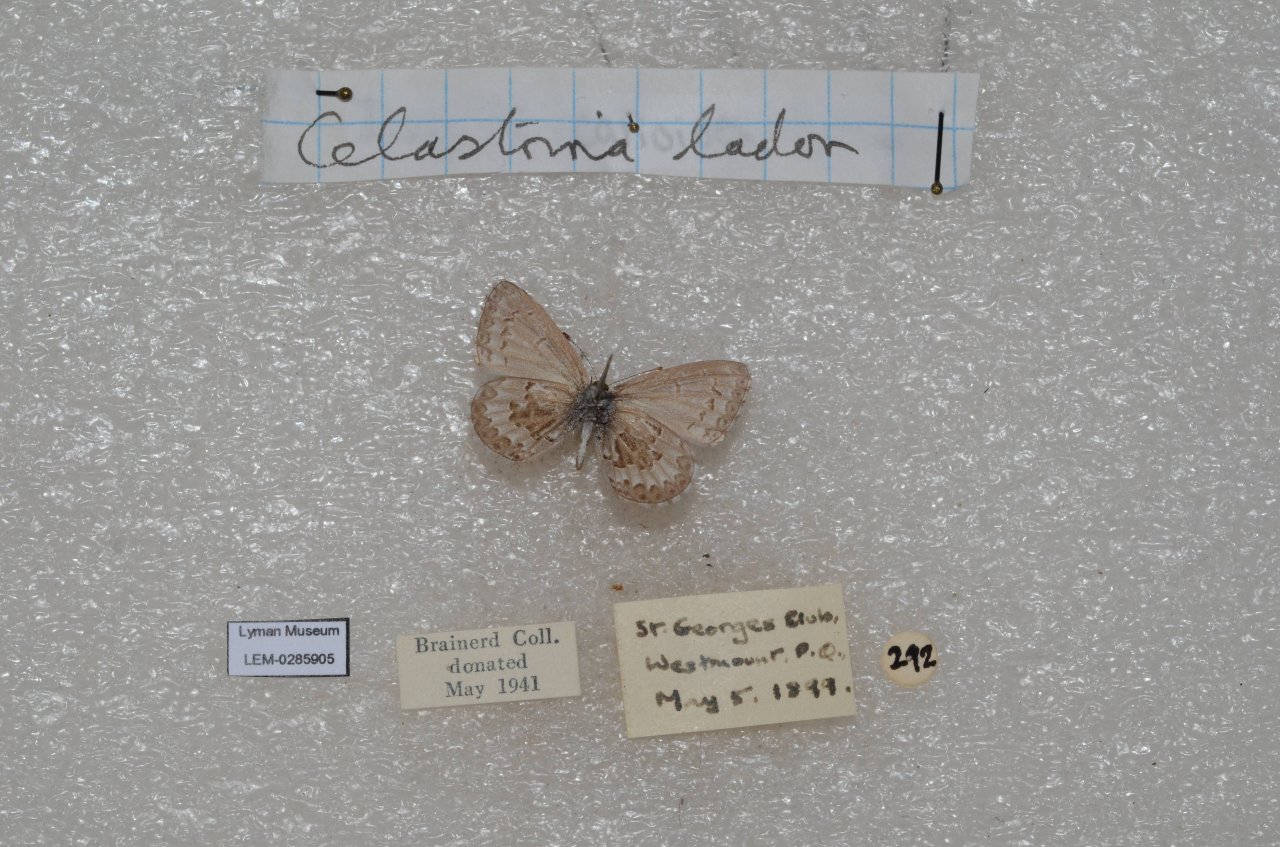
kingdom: Animalia
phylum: Arthropoda
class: Insecta
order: Lepidoptera
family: Lycaenidae
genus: Celastrina
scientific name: Celastrina lucia
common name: Northern Spring Azure
